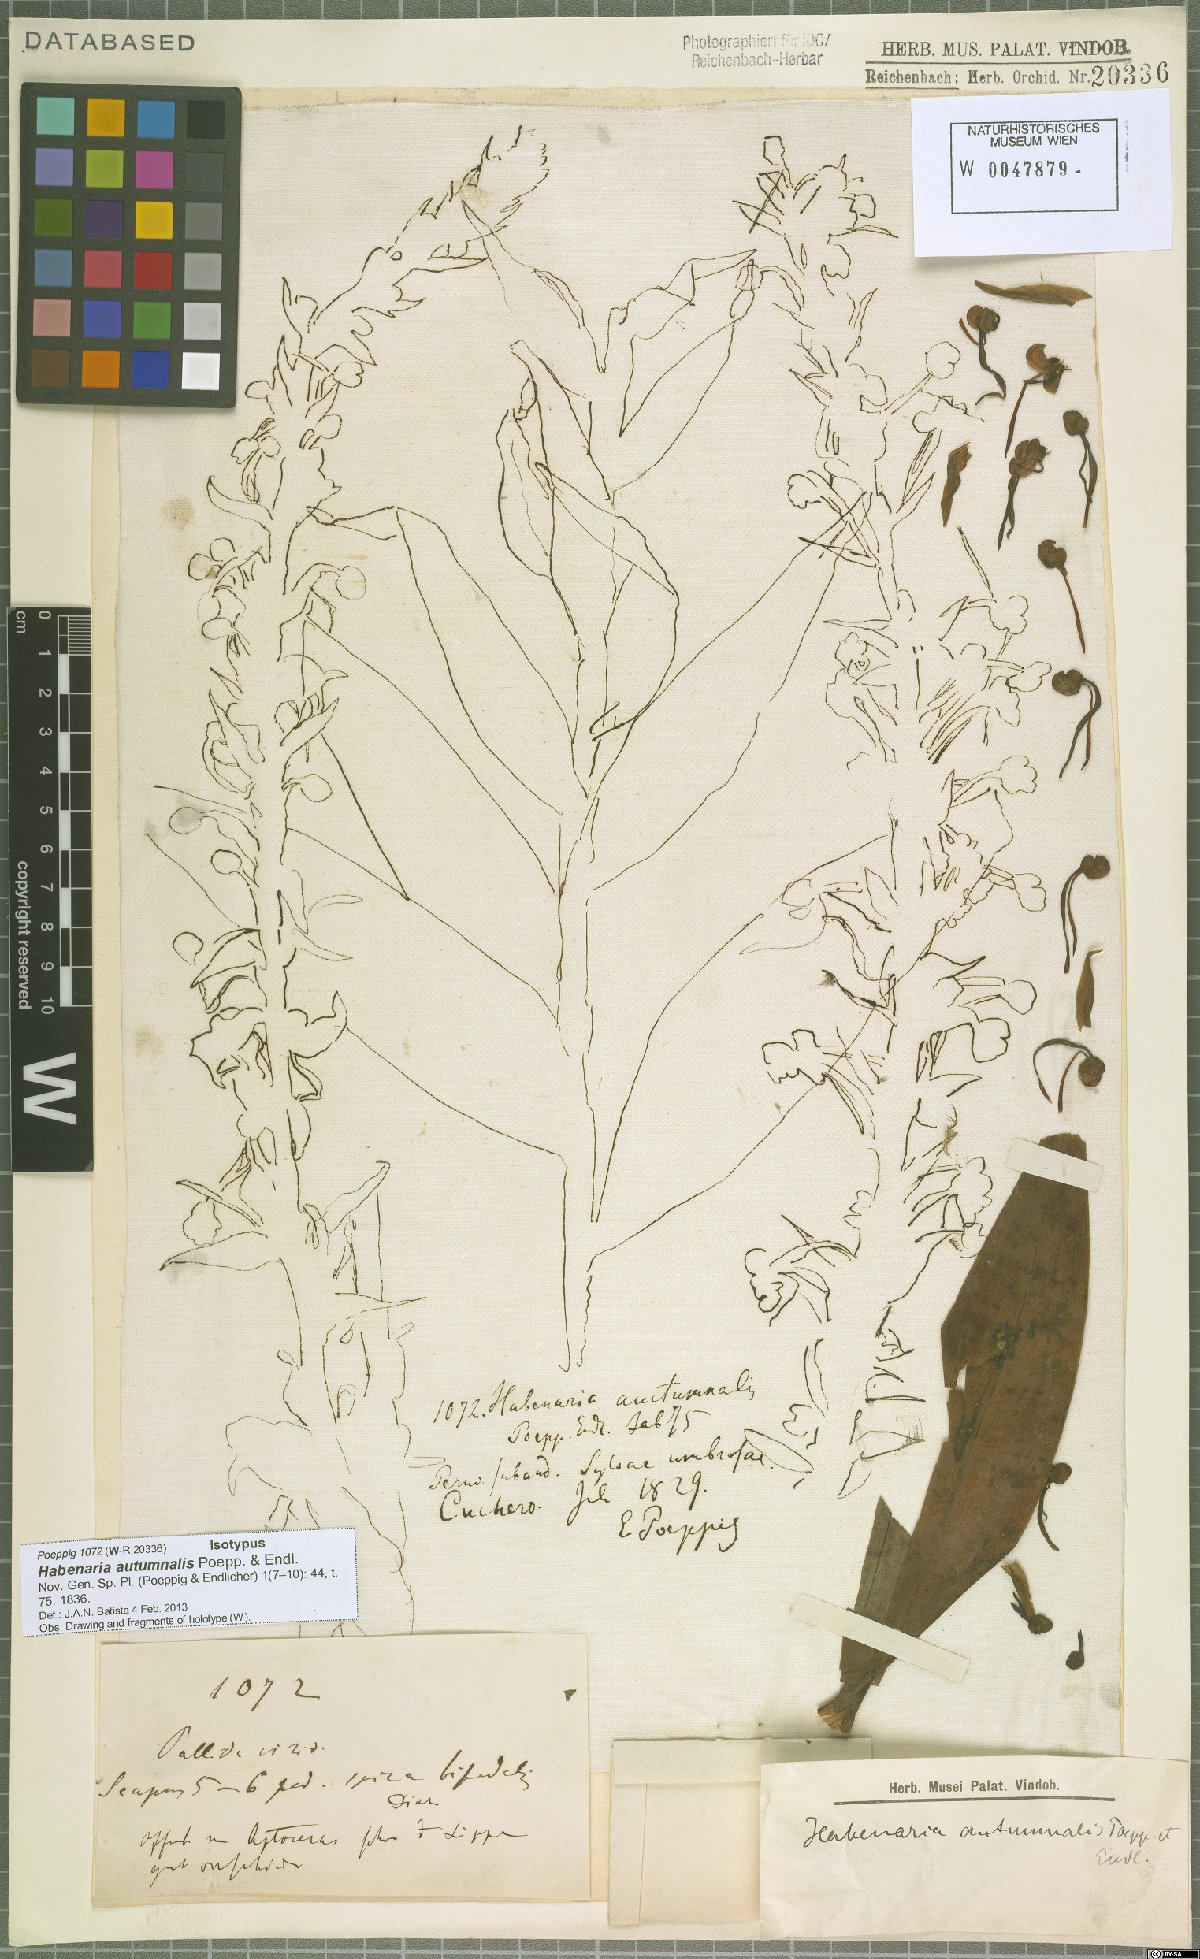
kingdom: Plantae
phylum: Tracheophyta
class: Liliopsida
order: Asparagales
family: Orchidaceae
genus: Habenaria
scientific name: Habenaria floribunda
